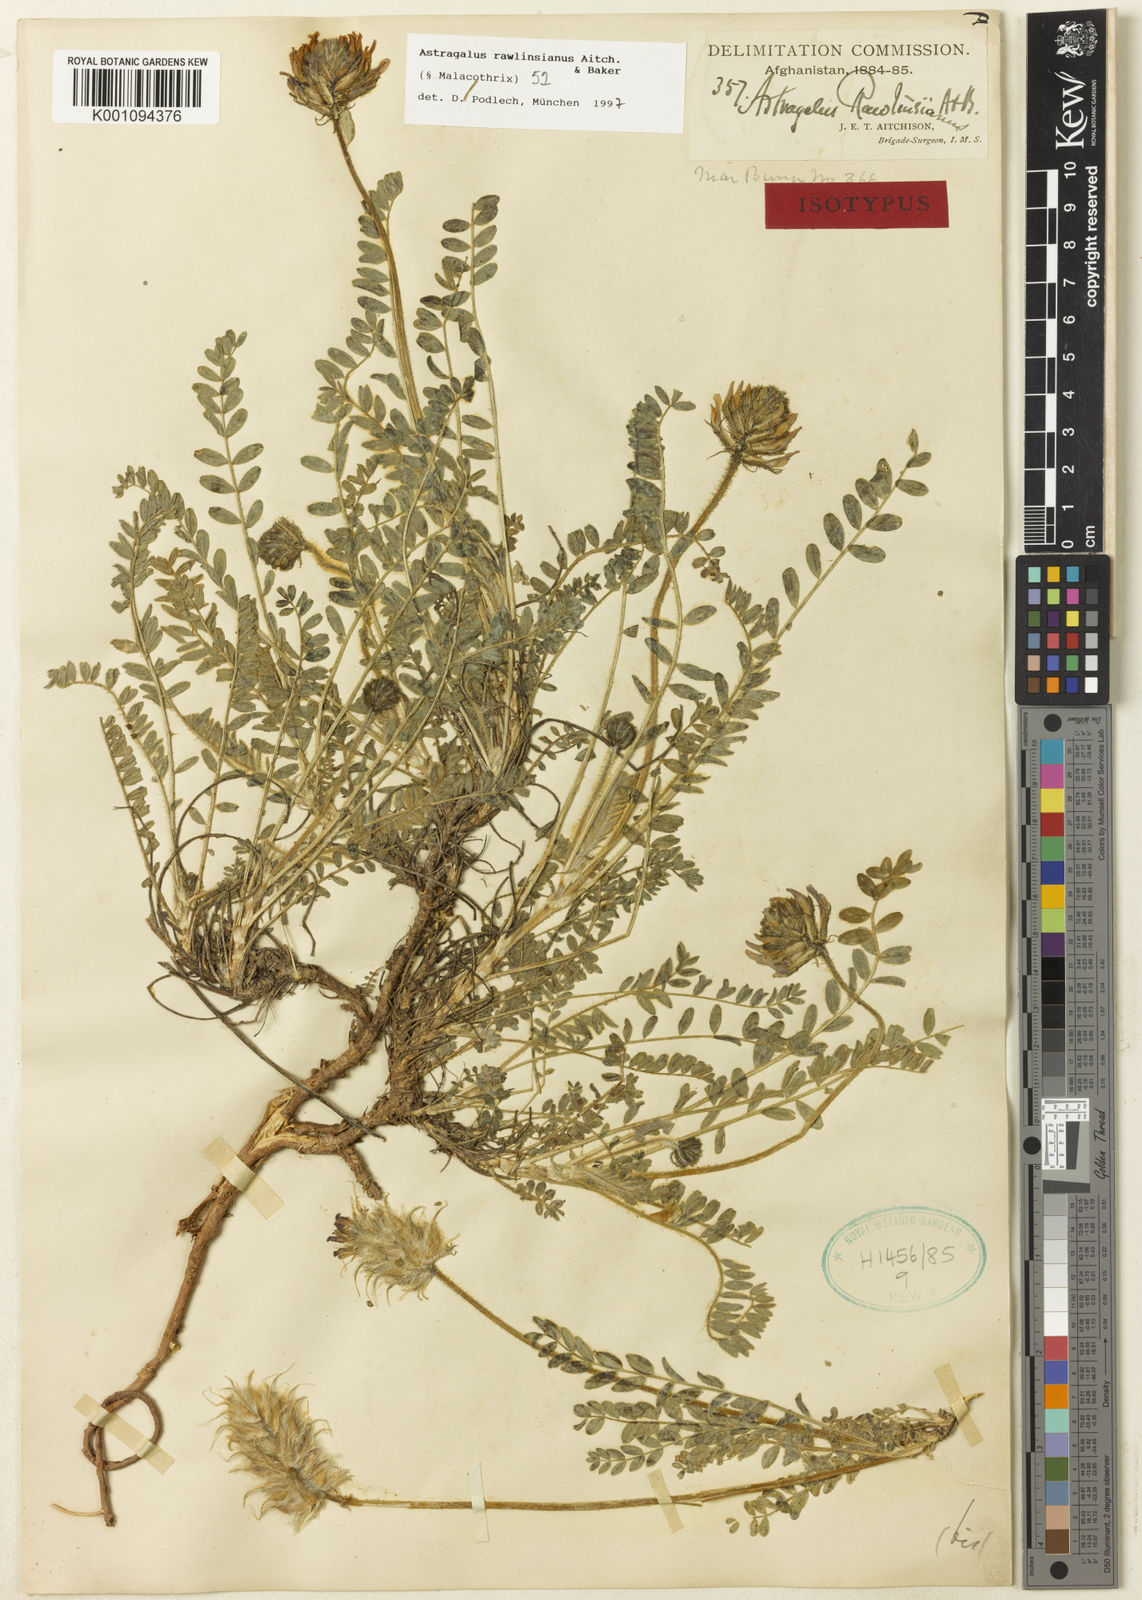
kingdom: Plantae
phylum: Tracheophyta
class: Magnoliopsida
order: Fabales
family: Fabaceae
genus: Astragalus
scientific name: Astragalus
